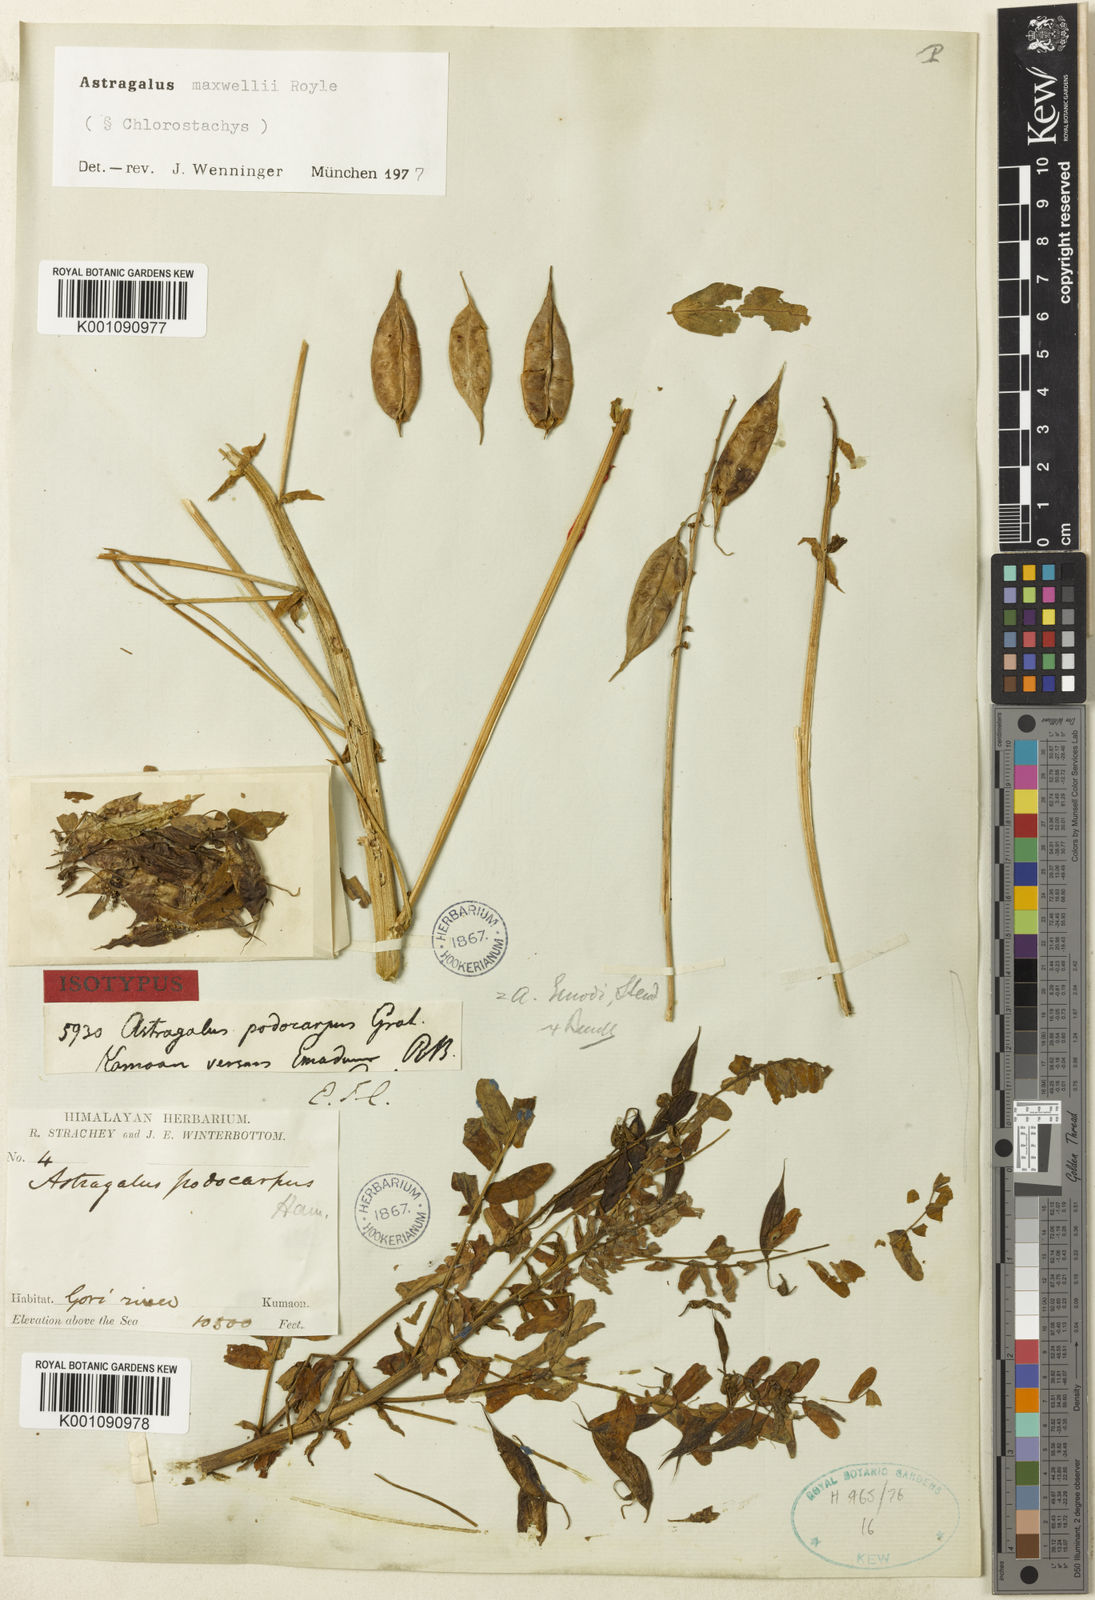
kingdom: Plantae
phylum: Tracheophyta
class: Magnoliopsida
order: Fabales
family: Fabaceae
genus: Astragalus
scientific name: Astragalus
